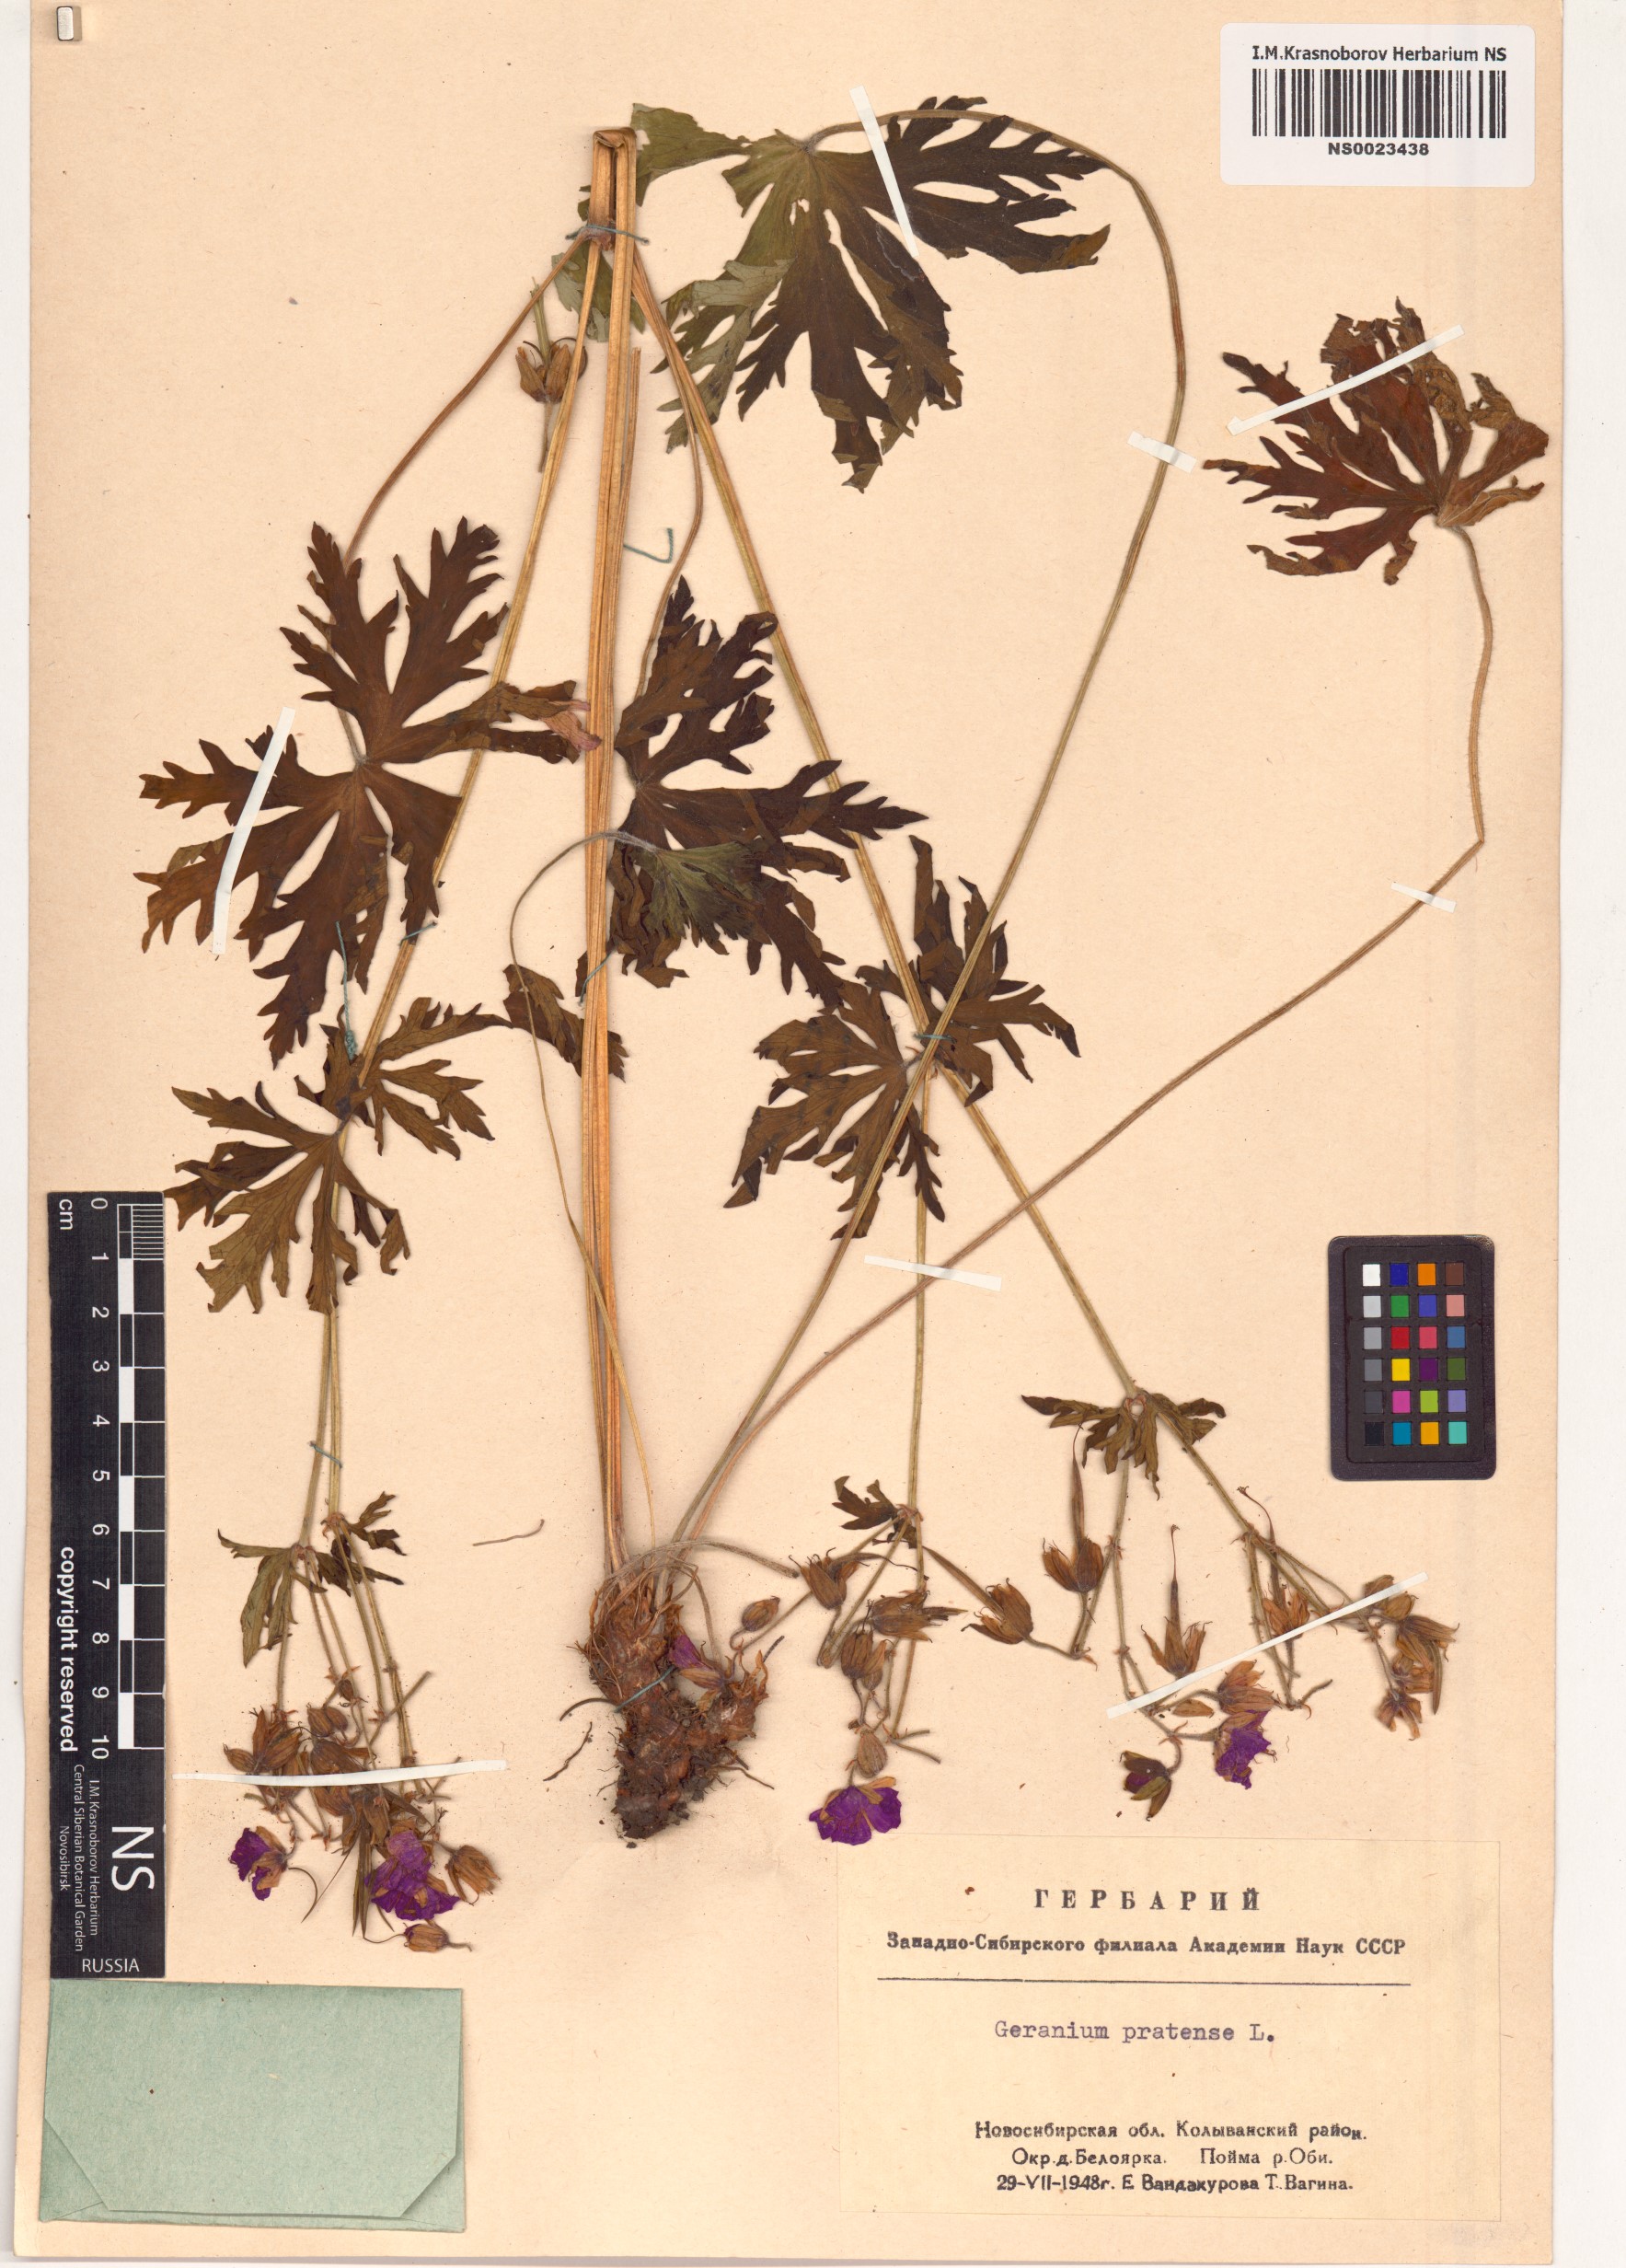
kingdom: Plantae
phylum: Tracheophyta
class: Magnoliopsida
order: Geraniales
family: Geraniaceae
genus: Geranium
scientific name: Geranium pratense
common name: Meadow crane's-bill
